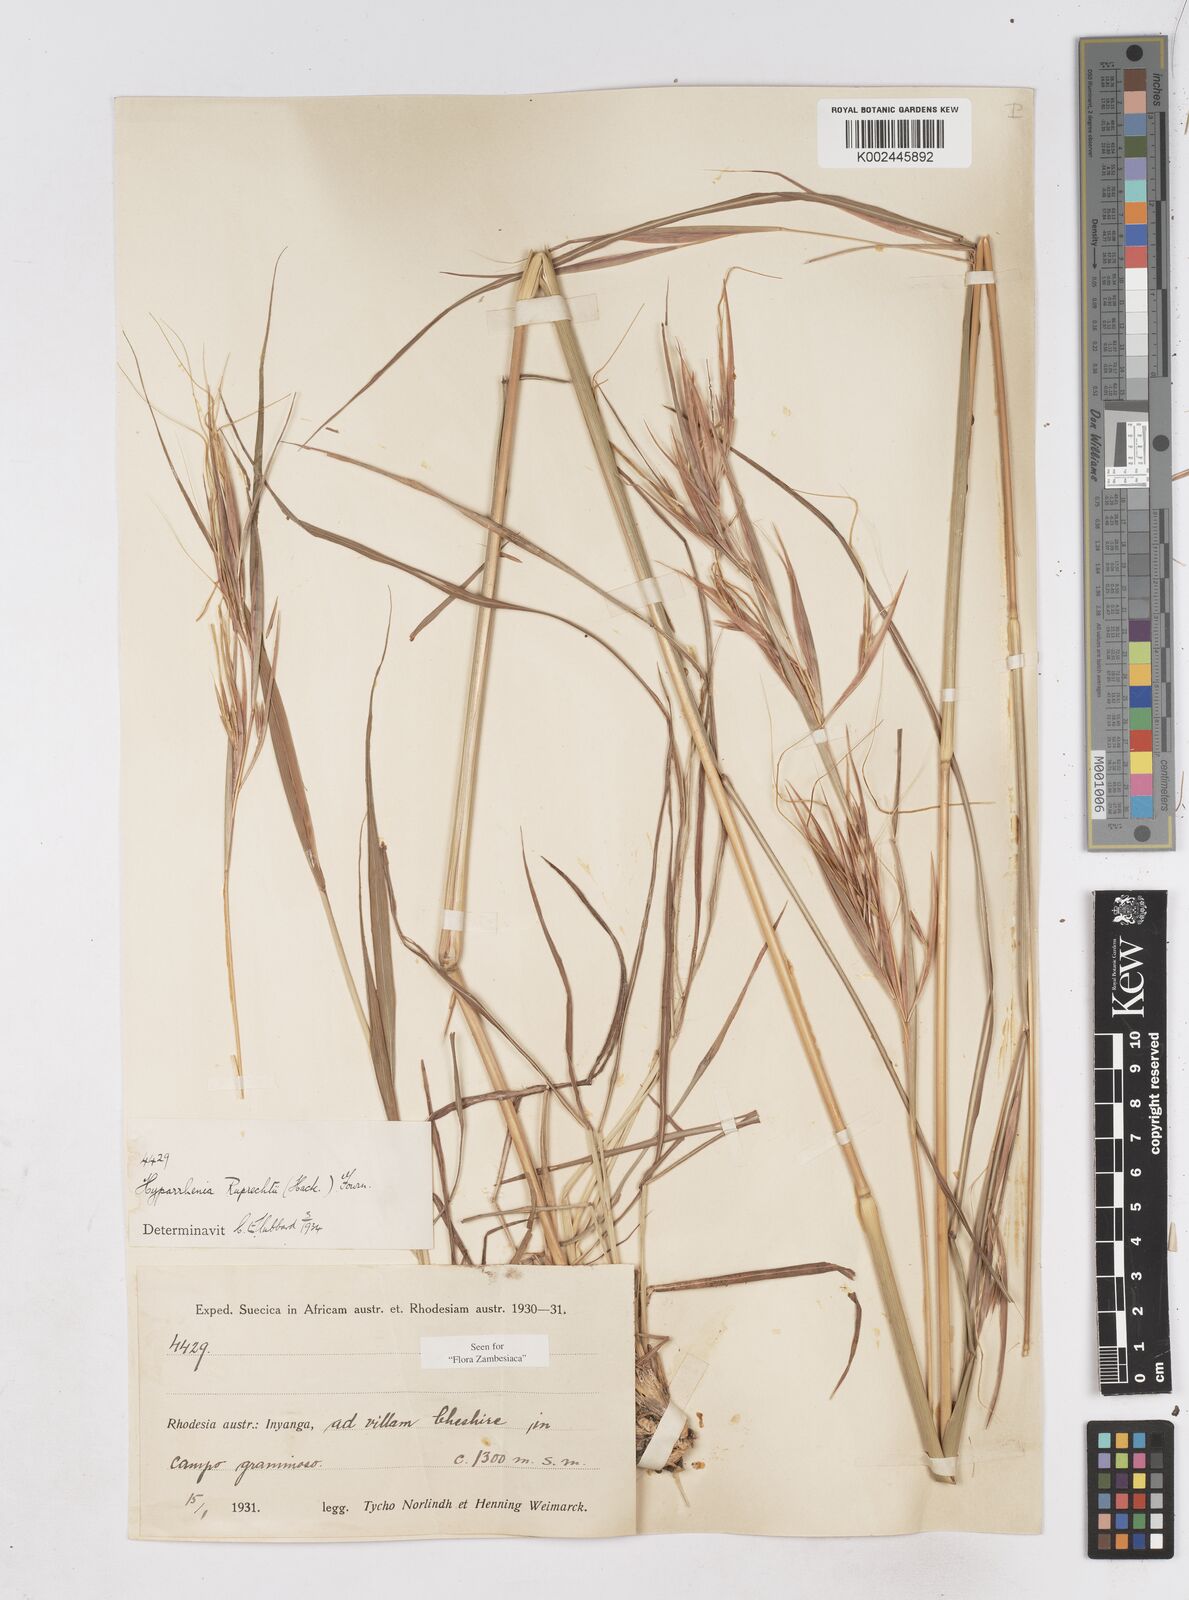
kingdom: Plantae
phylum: Tracheophyta
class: Liliopsida
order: Poales
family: Poaceae
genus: Hyperthelia
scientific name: Hyperthelia dissoluta
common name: Yellow thatching grass
